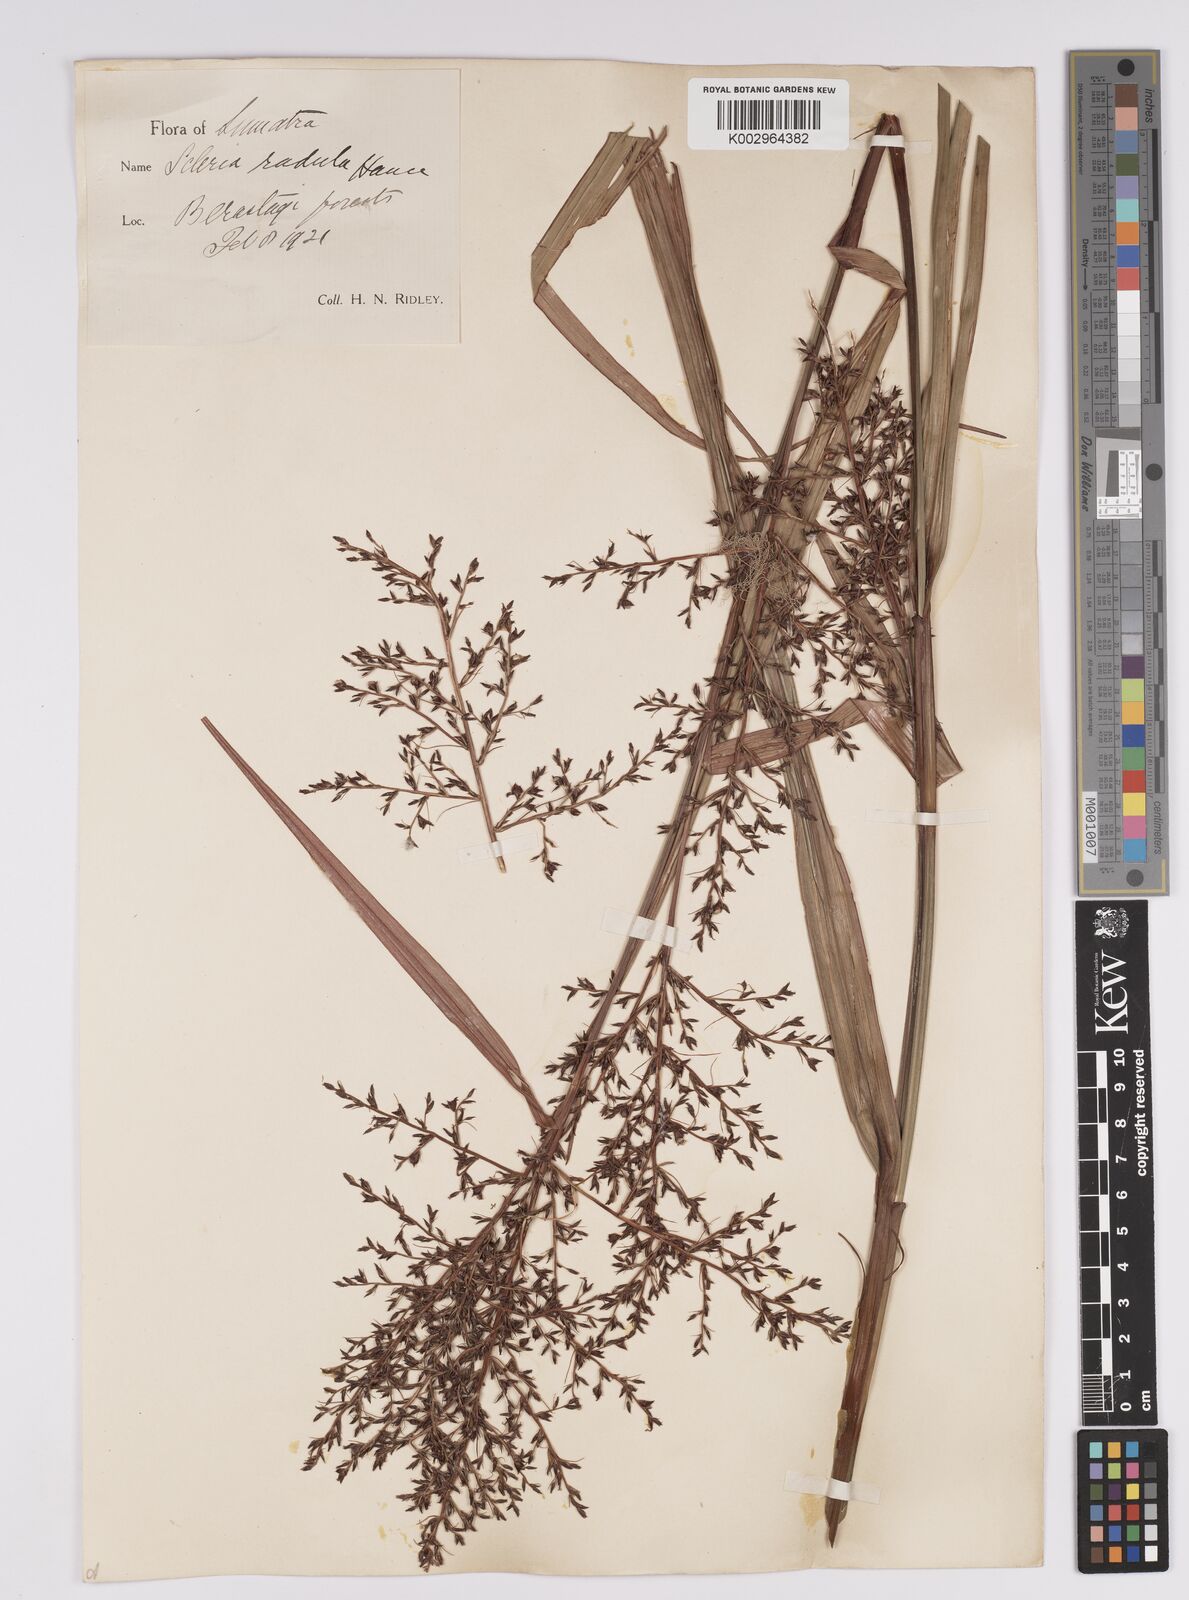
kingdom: Plantae
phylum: Tracheophyta
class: Liliopsida
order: Poales
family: Cyperaceae
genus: Scleria
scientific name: Scleria terrestris
